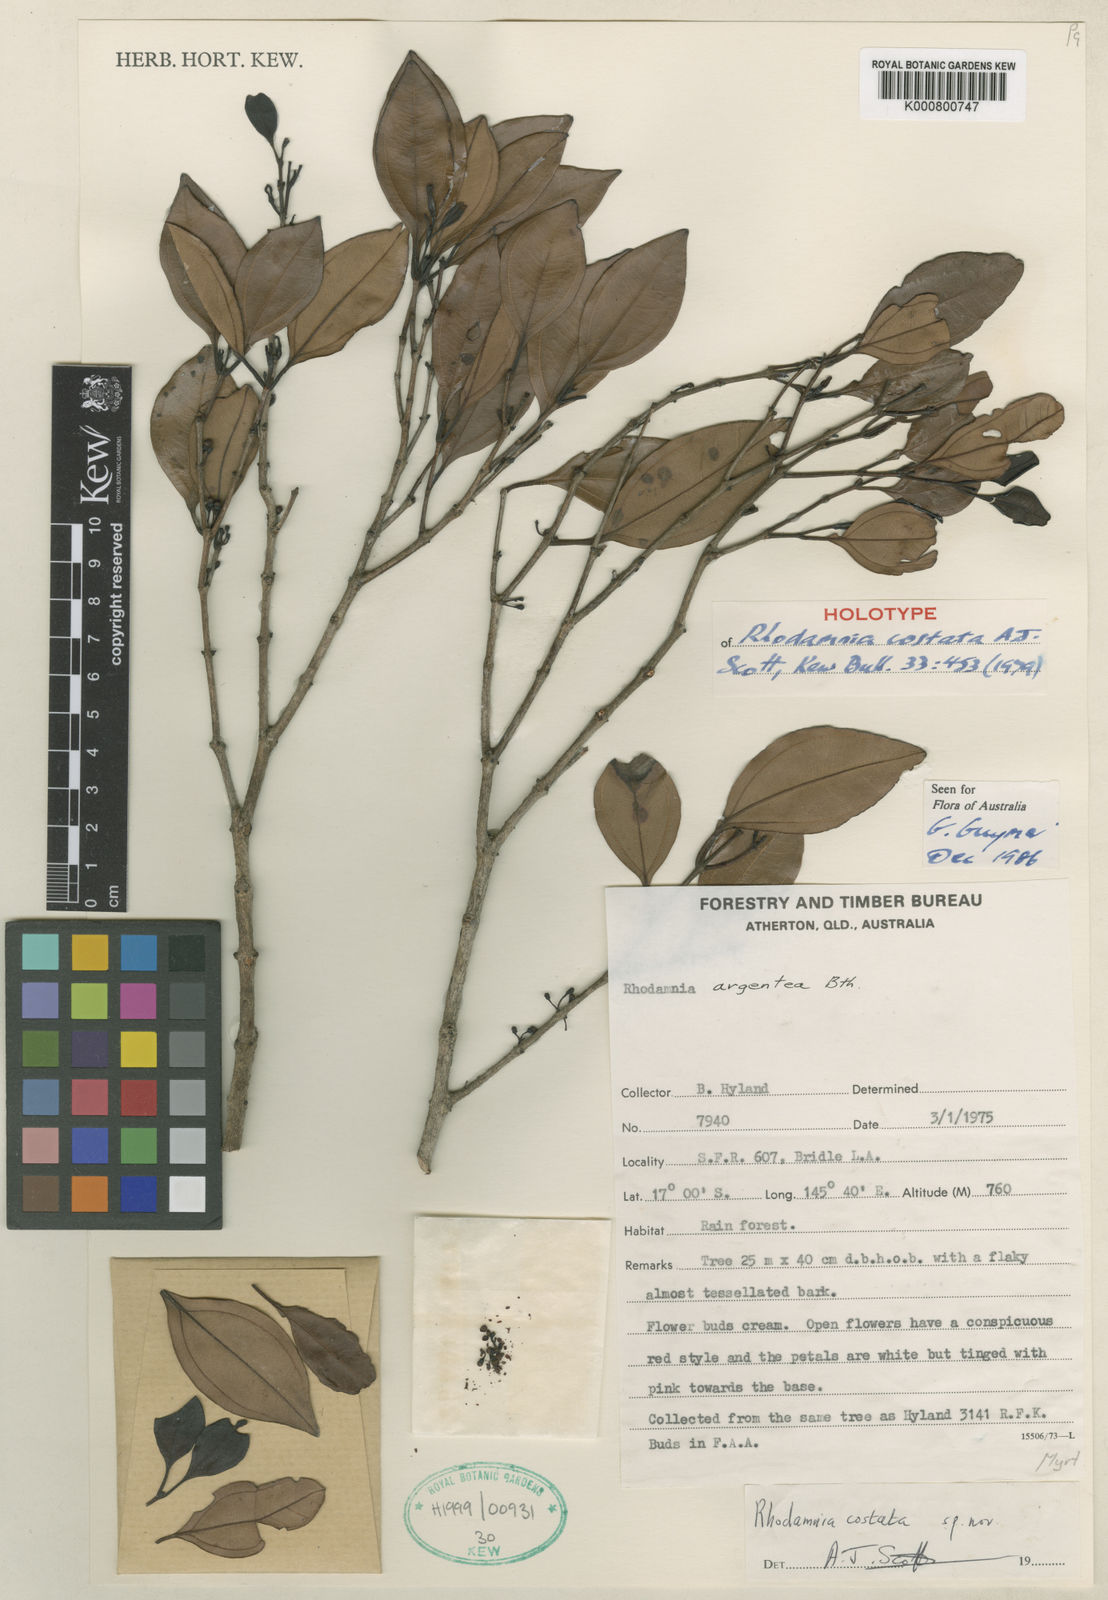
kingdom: Plantae
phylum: Tracheophyta
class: Magnoliopsida
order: Myrtales
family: Myrtaceae
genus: Rhodamnia
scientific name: Rhodamnia costata
